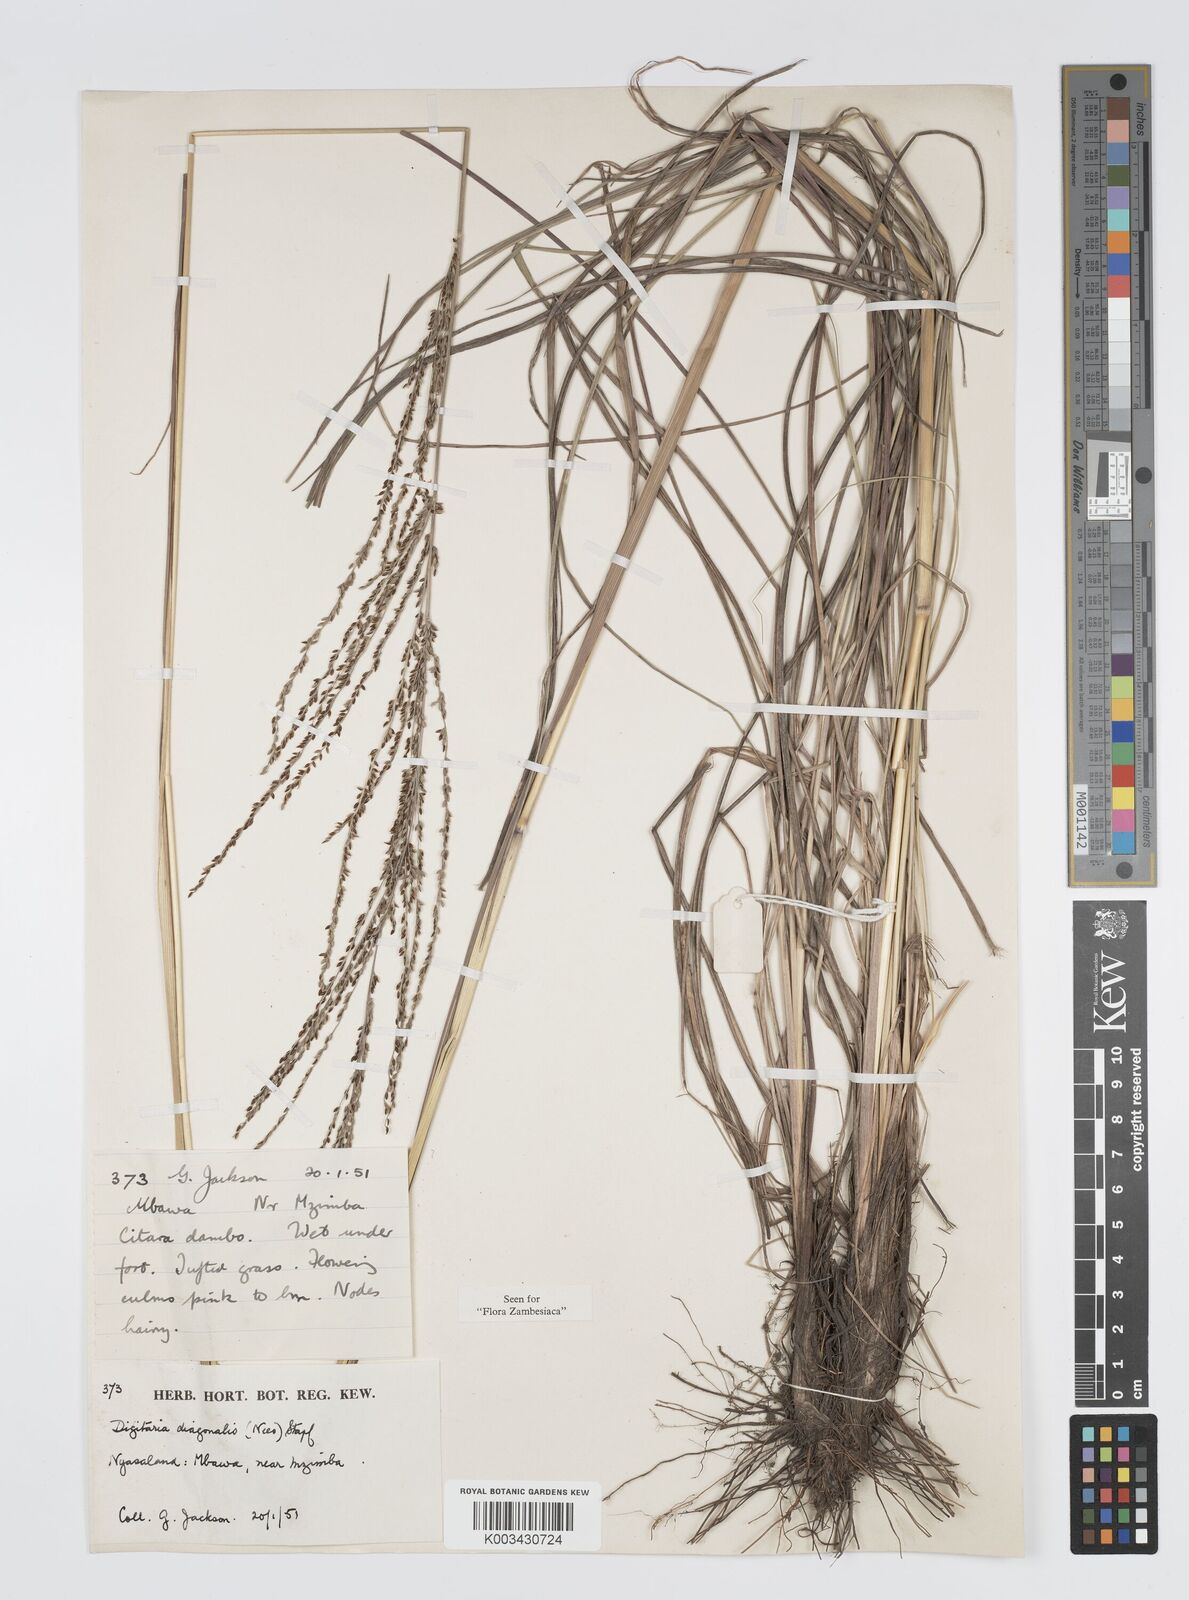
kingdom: Plantae
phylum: Tracheophyta
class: Liliopsida
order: Poales
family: Poaceae
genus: Digitaria
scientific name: Digitaria diagonalis
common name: Brown-seed finger grass
